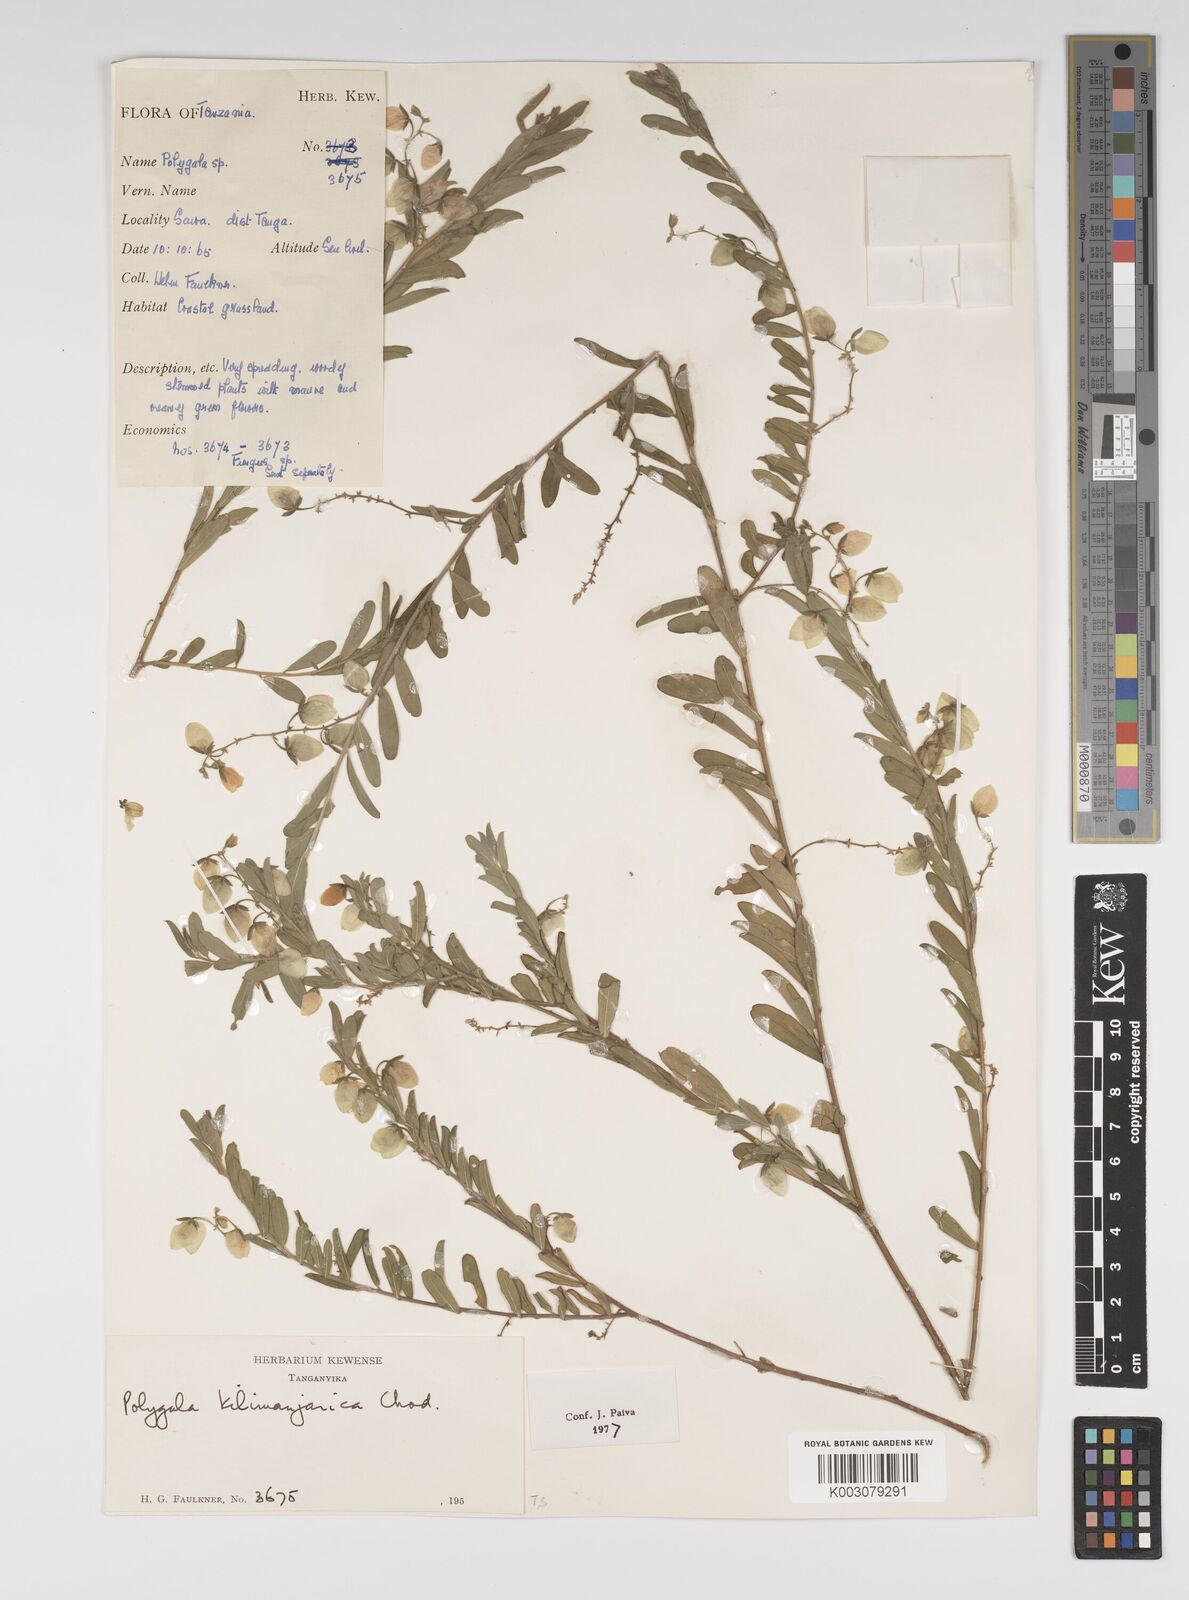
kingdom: Plantae
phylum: Tracheophyta
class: Magnoliopsida
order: Fabales
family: Polygalaceae
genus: Polygala
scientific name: Polygala kilimandjarica
